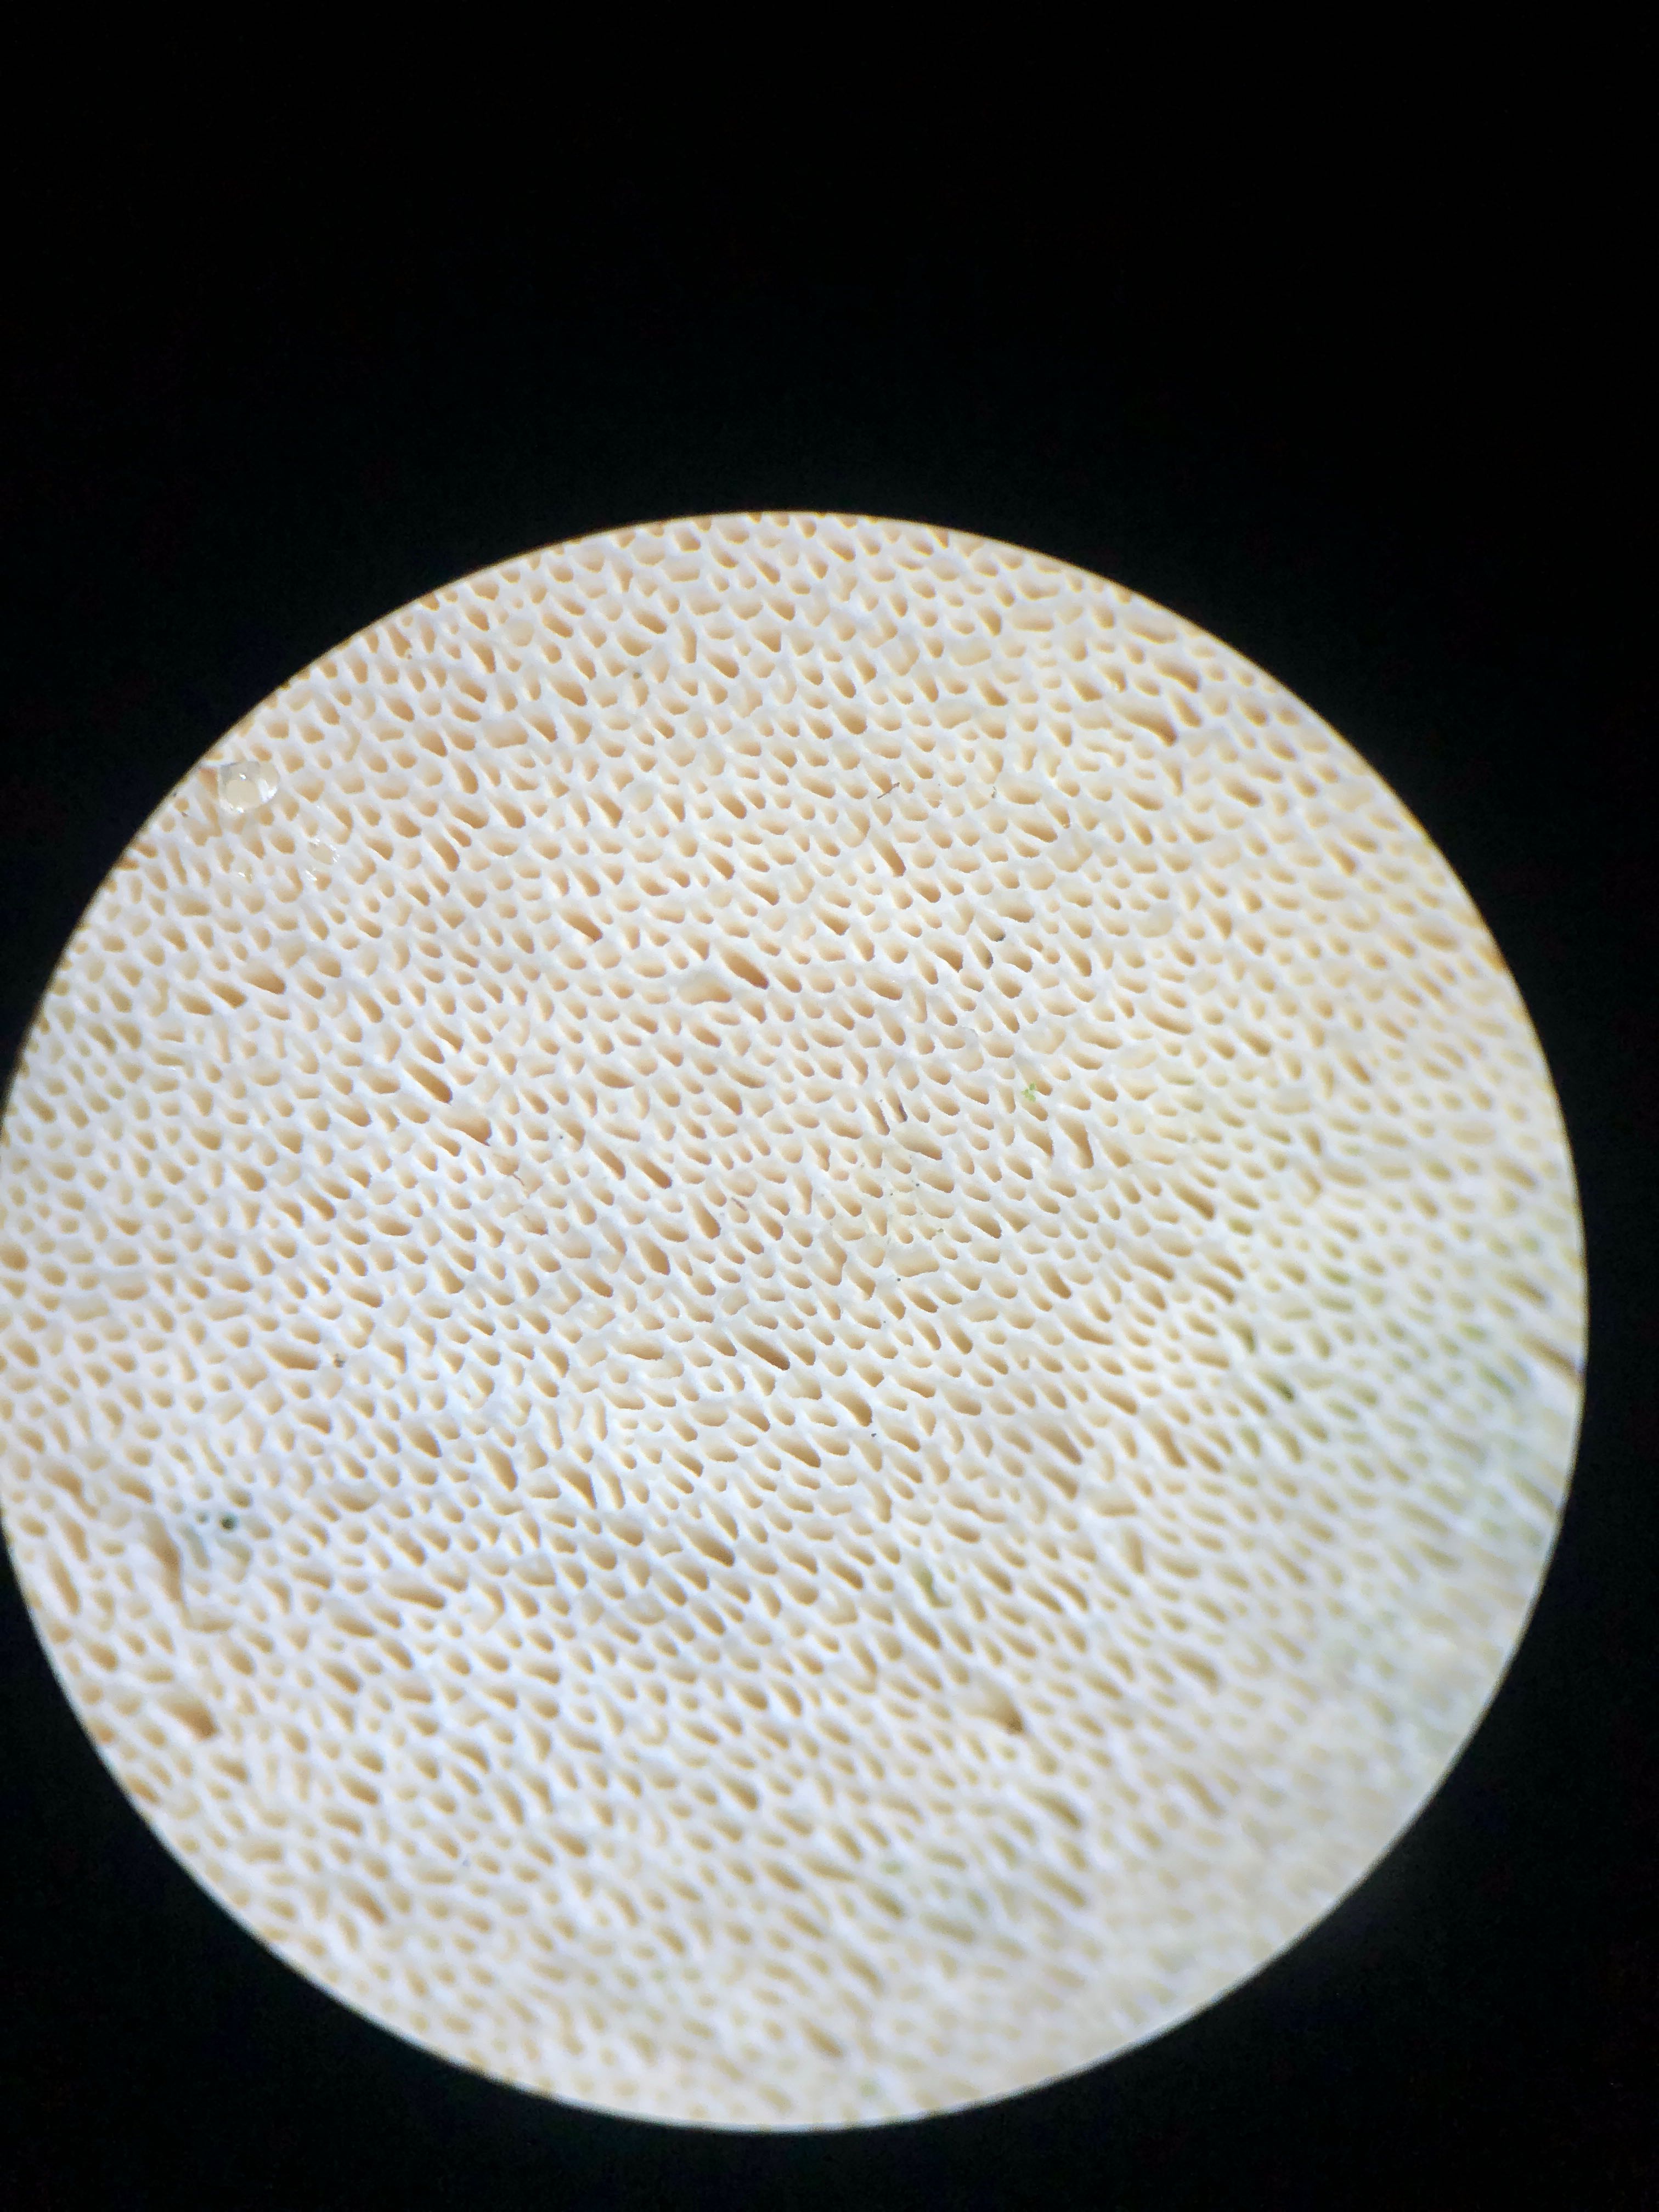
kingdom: Fungi
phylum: Basidiomycota
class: Agaricomycetes
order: Hymenochaetales
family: Rickenellaceae
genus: Sidera
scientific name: Sidera vulgaris
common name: fin flødeporesvamp
